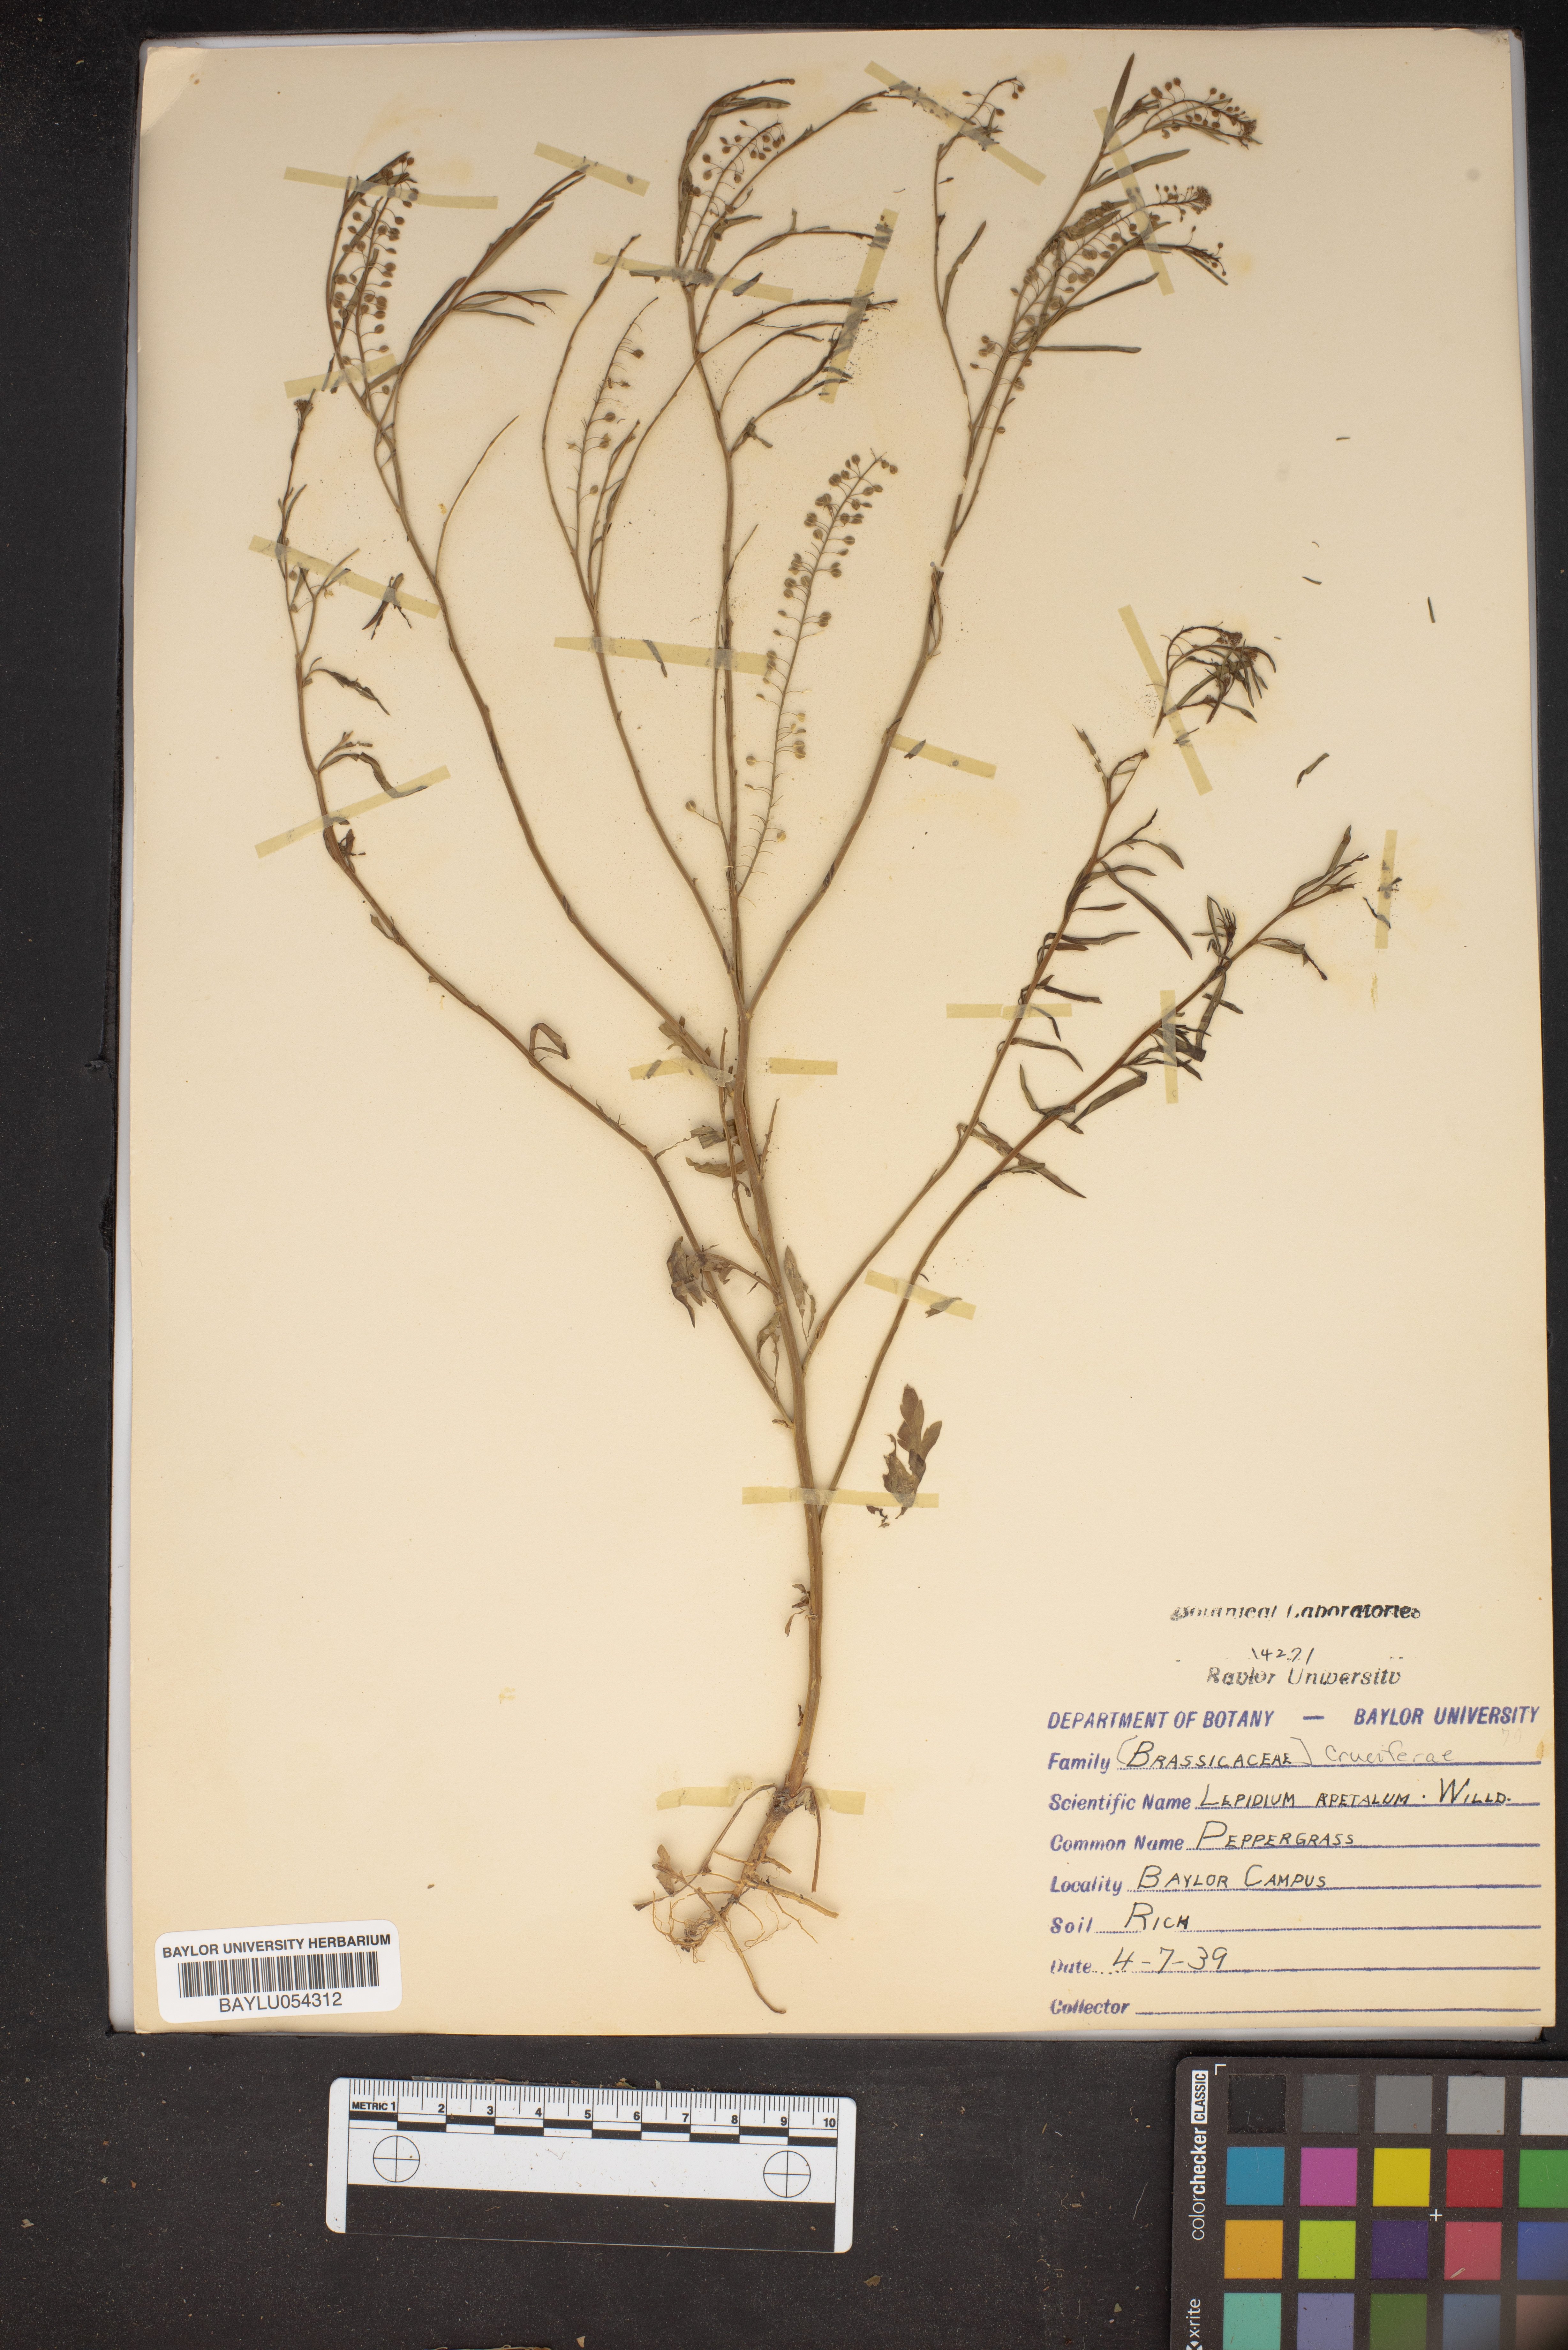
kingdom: Plantae
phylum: Tracheophyta
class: Magnoliopsida
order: Brassicales
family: Brassicaceae
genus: Lepidium
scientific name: Lepidium apetalum
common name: Pepperweed
